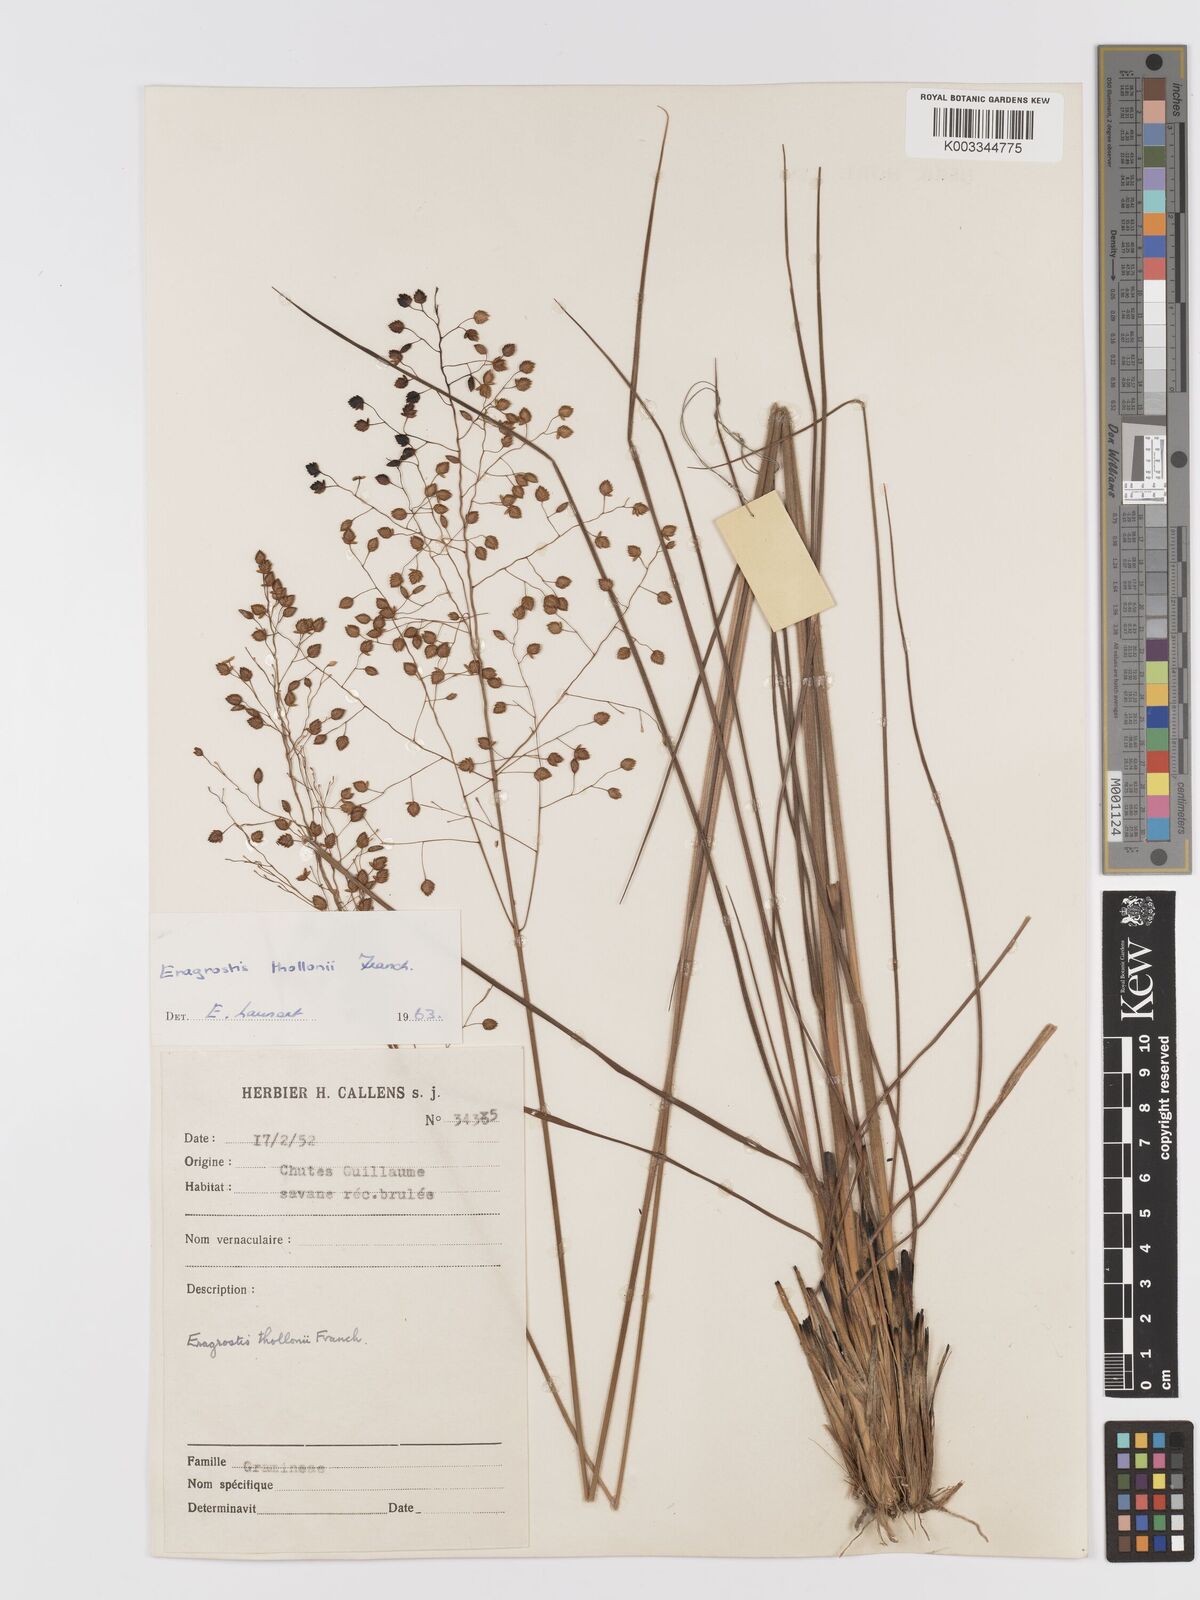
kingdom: Plantae
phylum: Tracheophyta
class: Liliopsida
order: Poales
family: Poaceae
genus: Eragrostis
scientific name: Eragrostis thollonii
